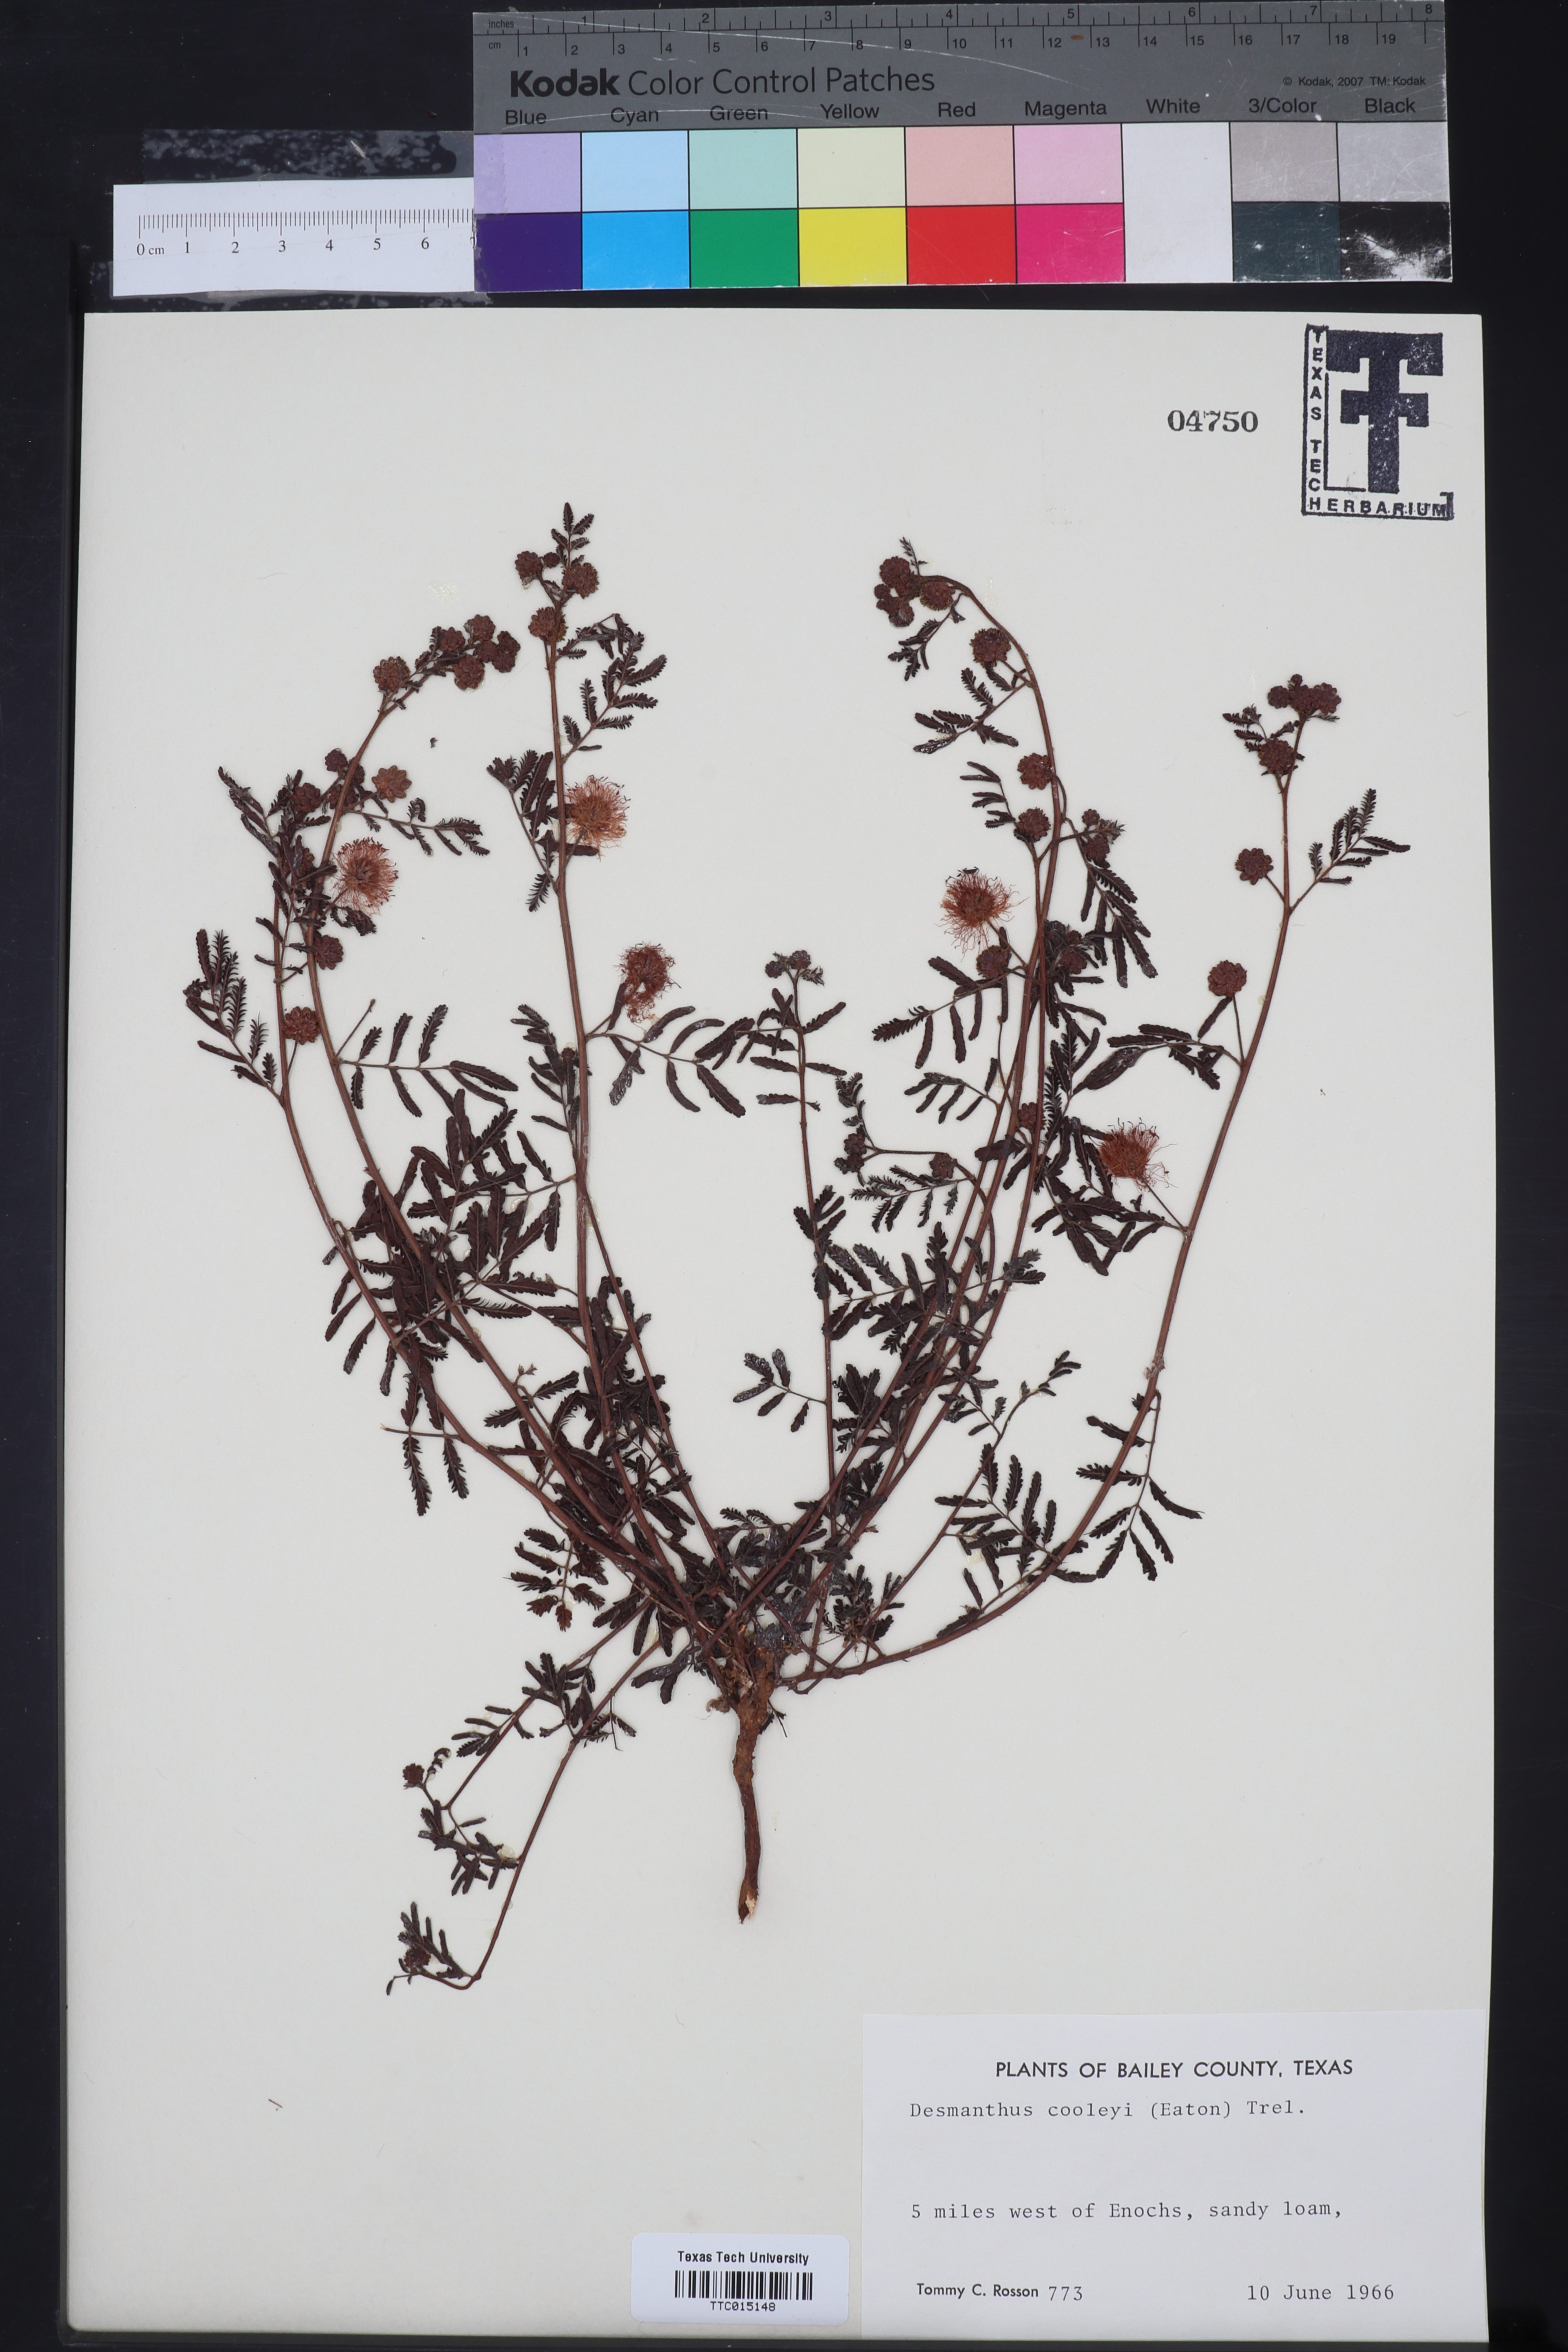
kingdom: Plantae
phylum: Tracheophyta
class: Magnoliopsida
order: Fabales
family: Fabaceae
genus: Desmanthus
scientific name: Desmanthus cooleyi
